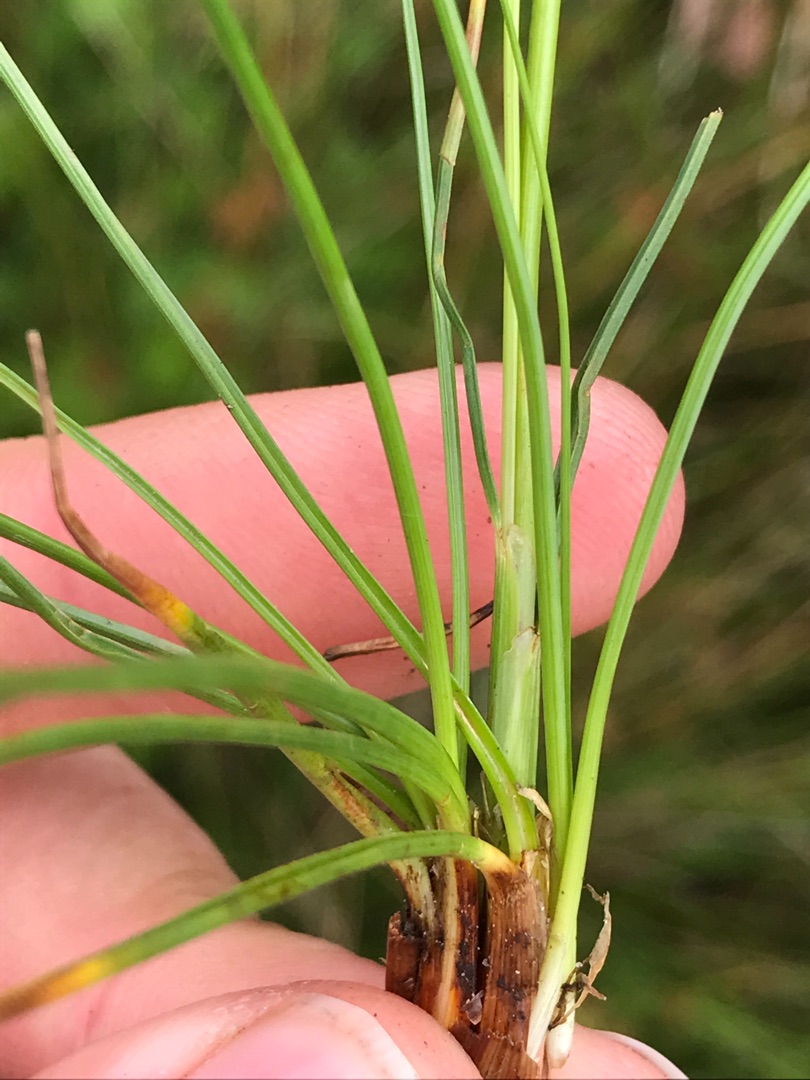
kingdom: Plantae
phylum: Tracheophyta
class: Liliopsida
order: Poales
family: Juncaceae
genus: Juncus
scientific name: Juncus squarrosus
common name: Børste-siv
